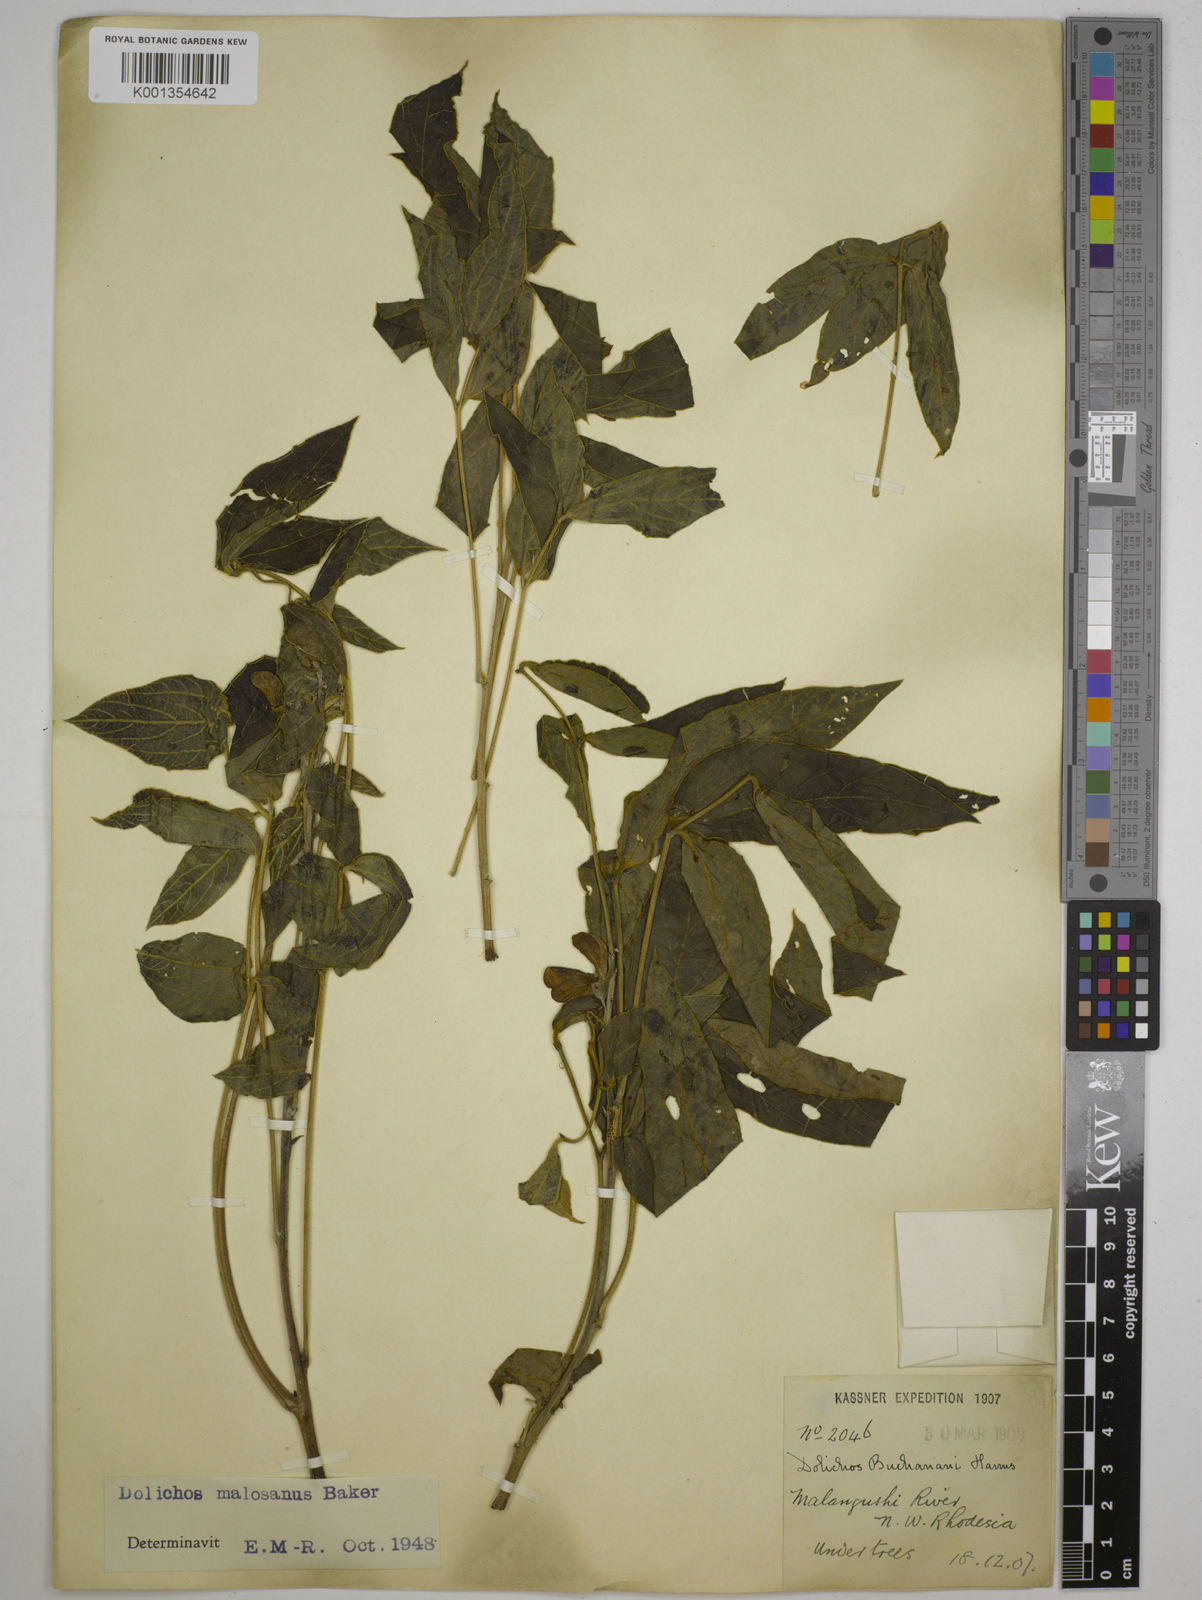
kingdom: Plantae
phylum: Tracheophyta
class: Magnoliopsida
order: Fabales
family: Fabaceae
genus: Dolichos
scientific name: Dolichos kilimandscharicus
